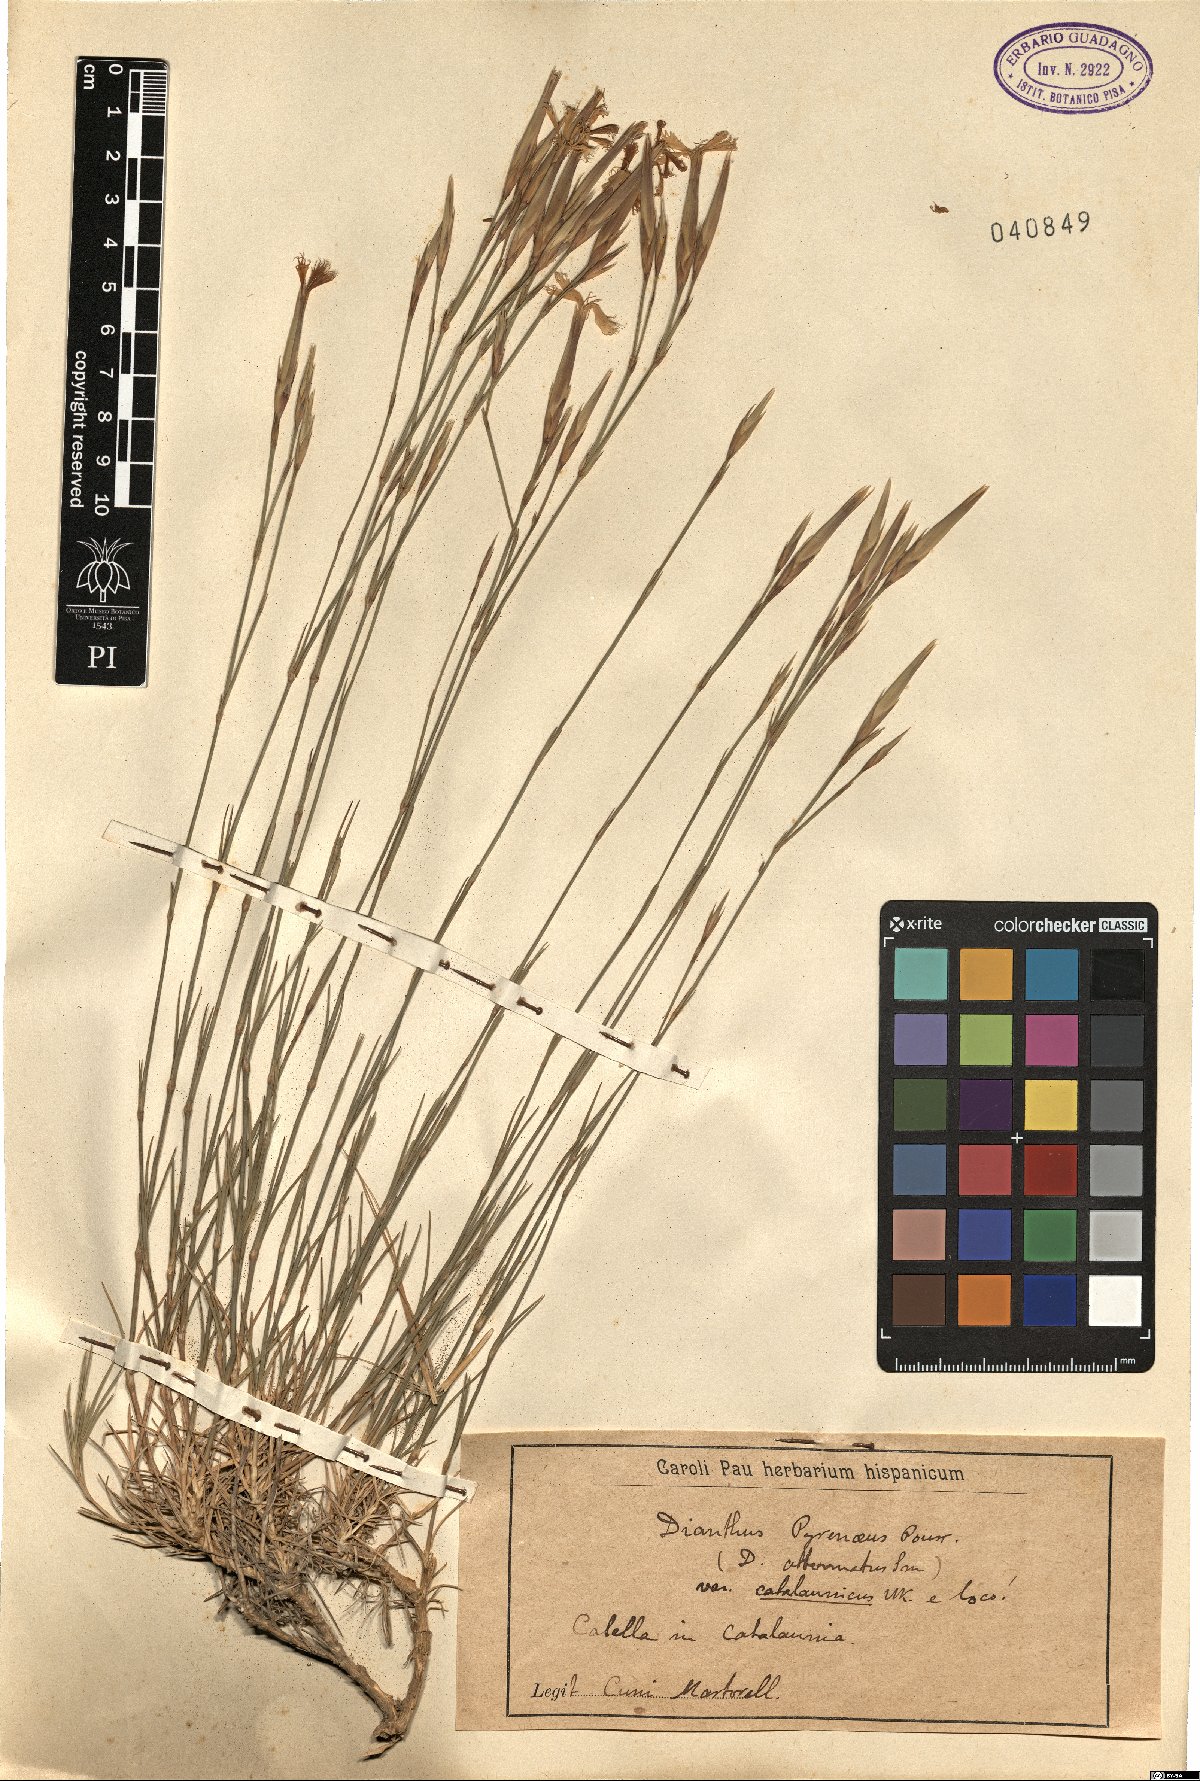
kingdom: Plantae
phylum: Tracheophyta
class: Magnoliopsida
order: Caryophyllales
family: Caryophyllaceae
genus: Dianthus
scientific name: Dianthus pyrenaicus
